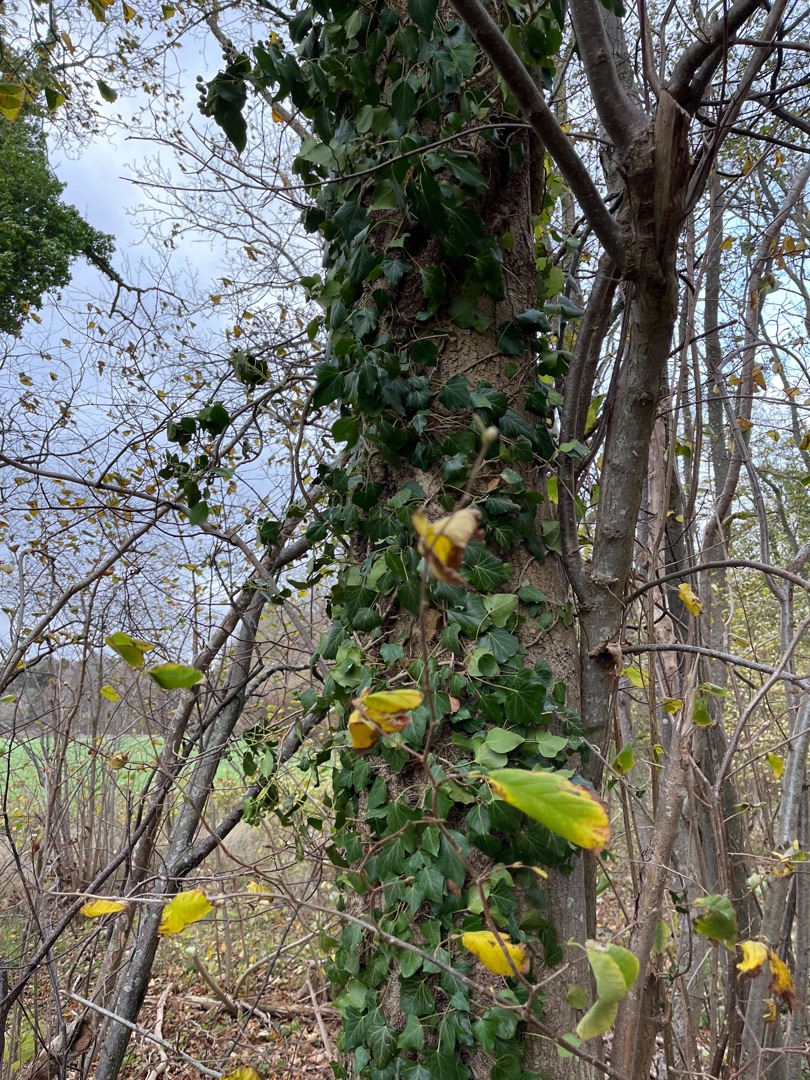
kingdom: Plantae
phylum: Tracheophyta
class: Magnoliopsida
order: Apiales
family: Araliaceae
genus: Hedera
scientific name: Hedera helix
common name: Vedbend
